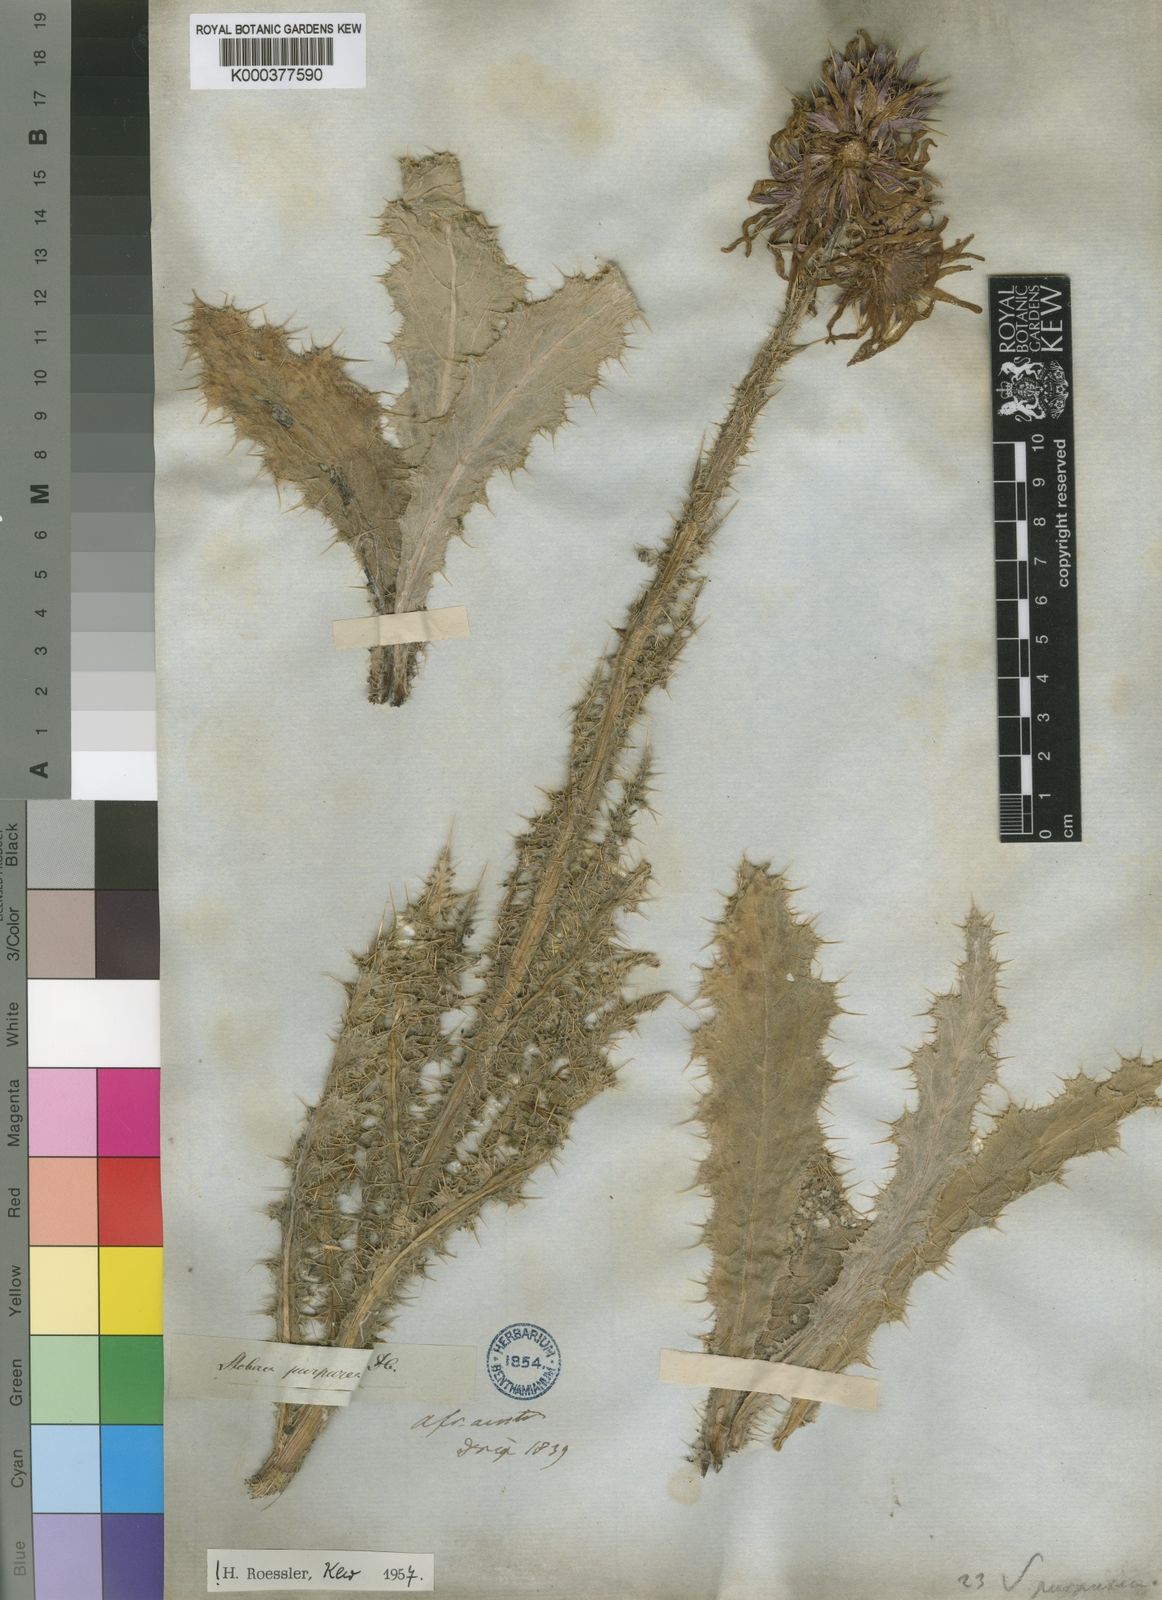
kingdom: Plantae
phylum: Tracheophyta
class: Magnoliopsida
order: Asterales
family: Asteraceae
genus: Berkheya
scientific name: Berkheya purpurea
